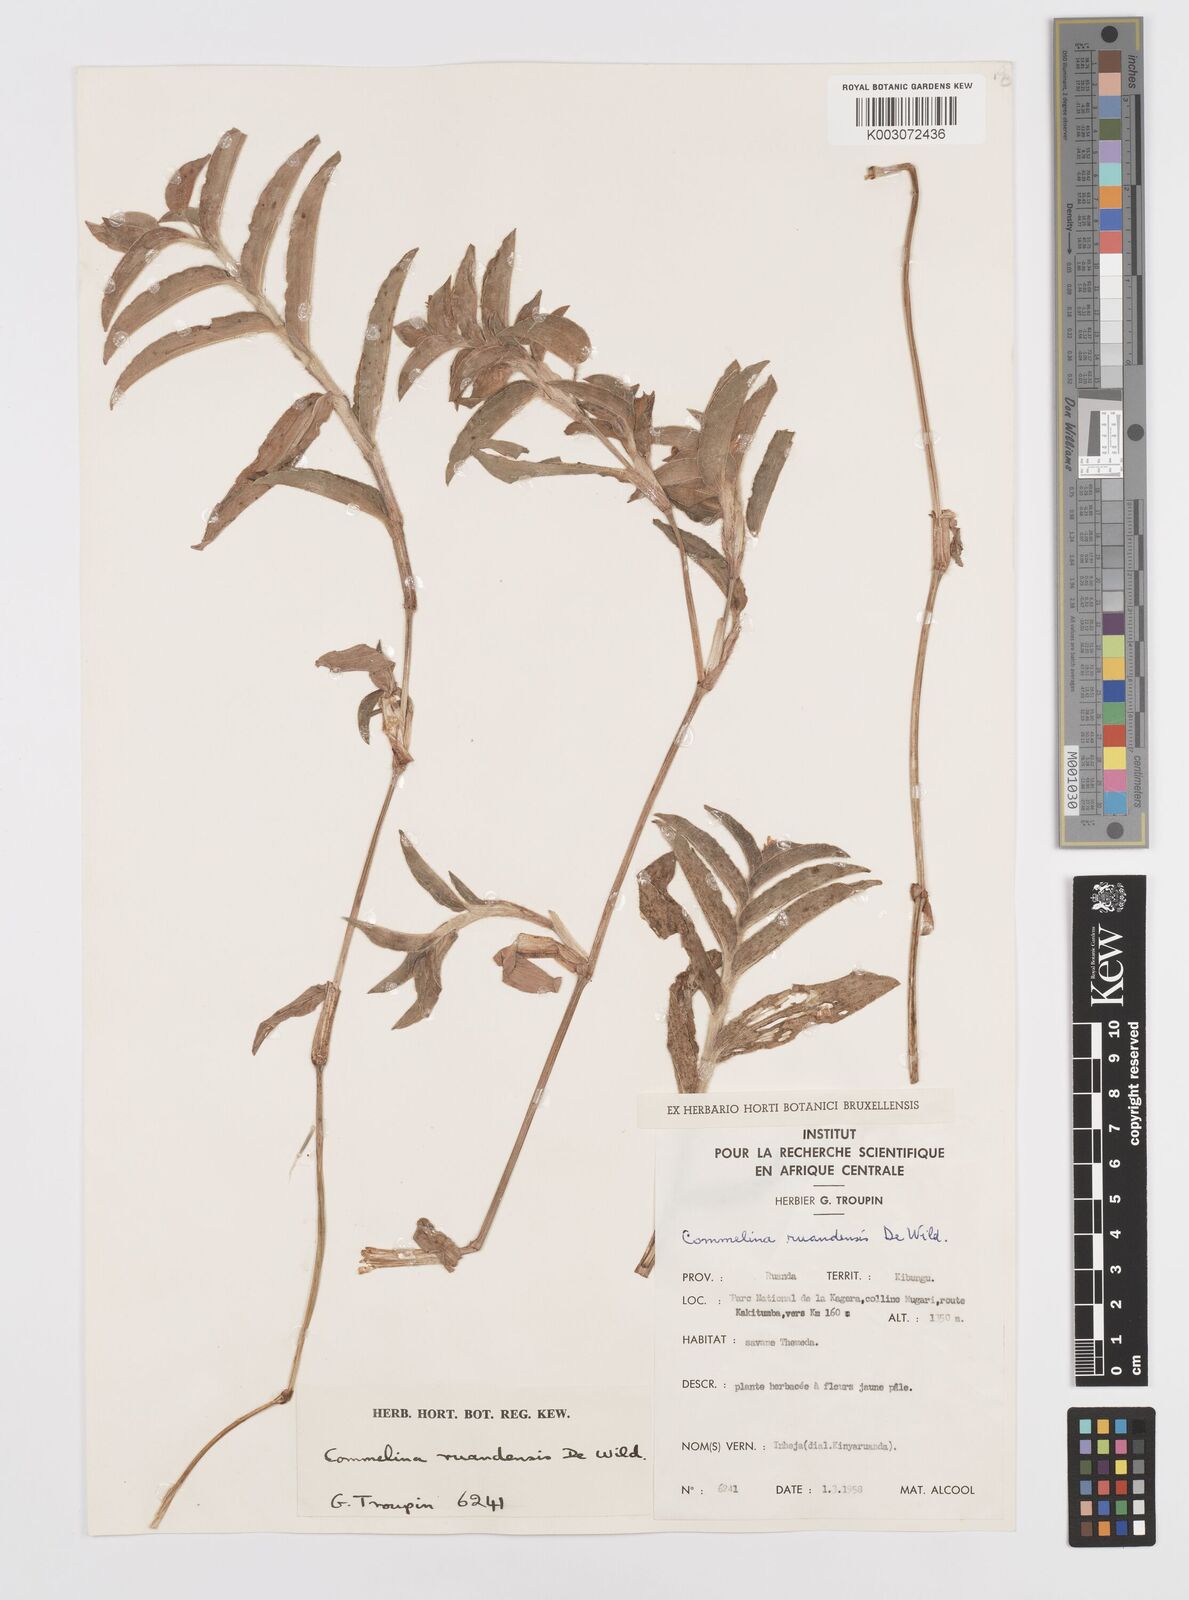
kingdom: Plantae
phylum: Tracheophyta
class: Liliopsida
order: Commelinales
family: Commelinaceae
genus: Commelina
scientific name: Commelina ruandensis
